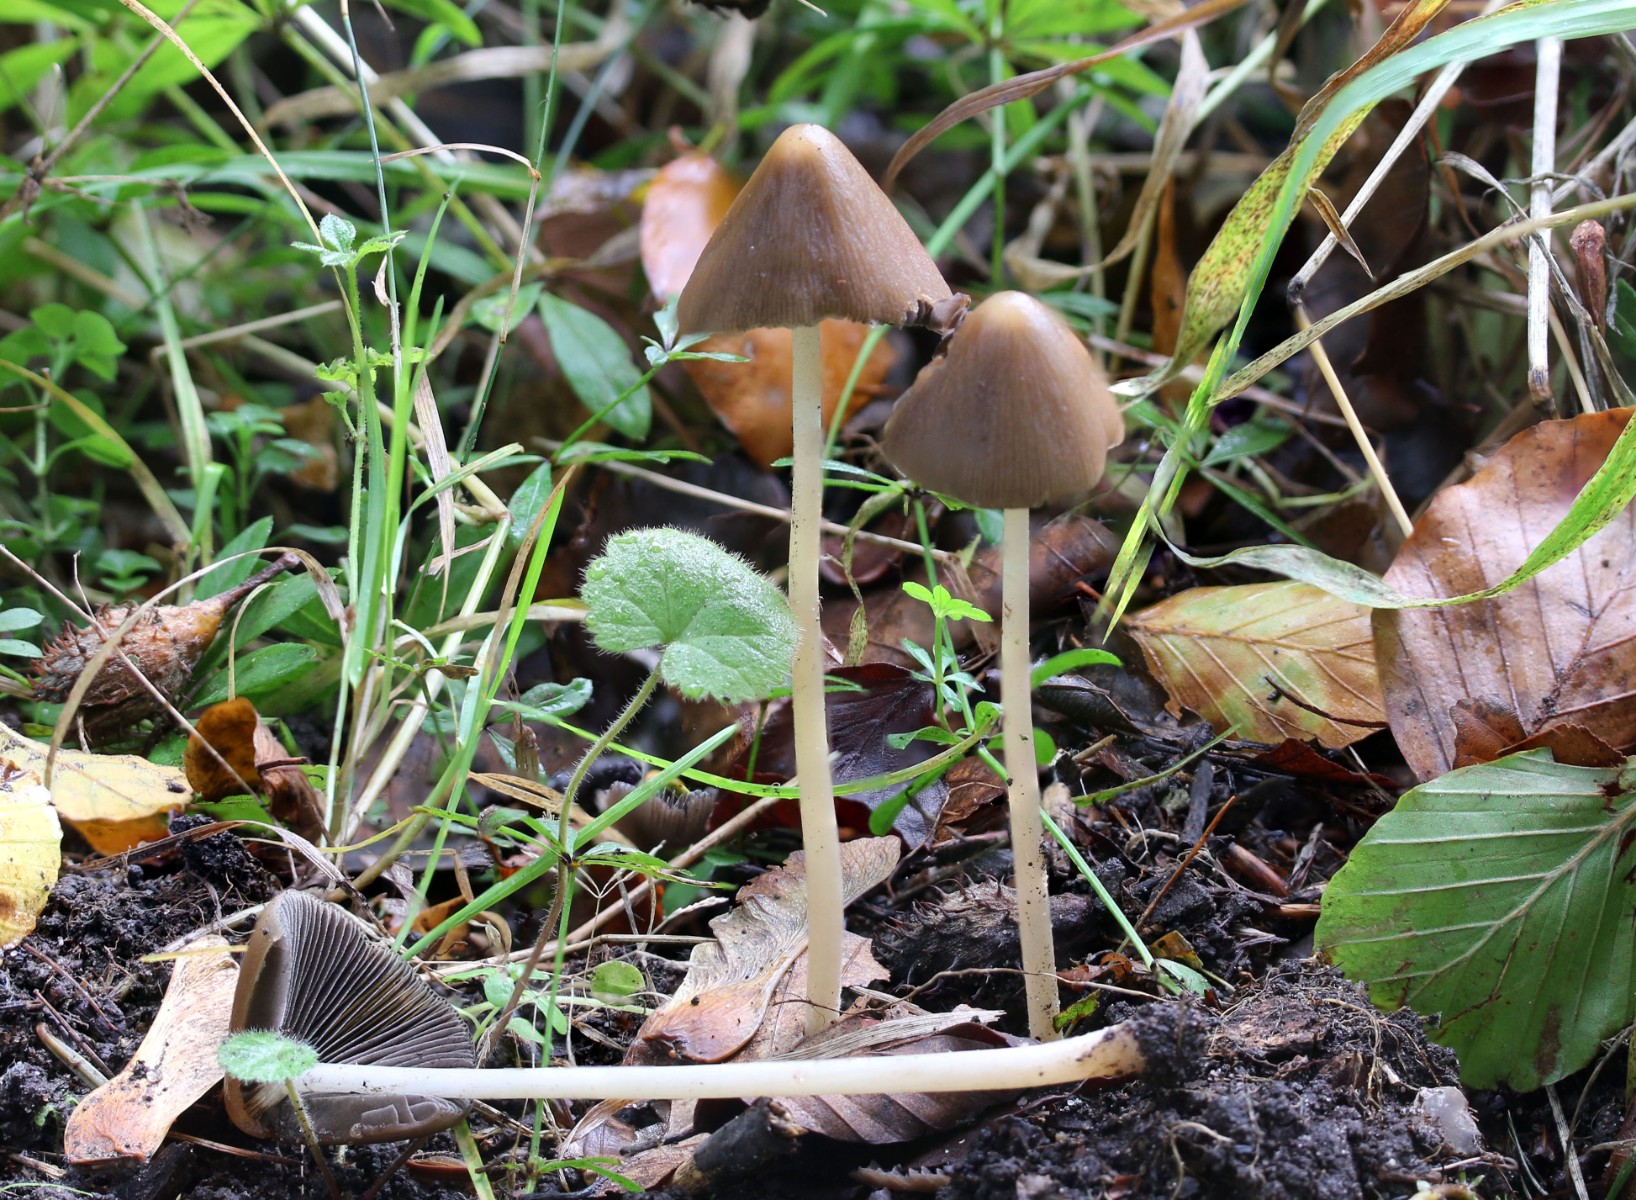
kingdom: Fungi
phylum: Basidiomycota
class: Agaricomycetes
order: Agaricales
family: Psathyrellaceae
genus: Parasola
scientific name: Parasola conopilea
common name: kegle-hjulhat
